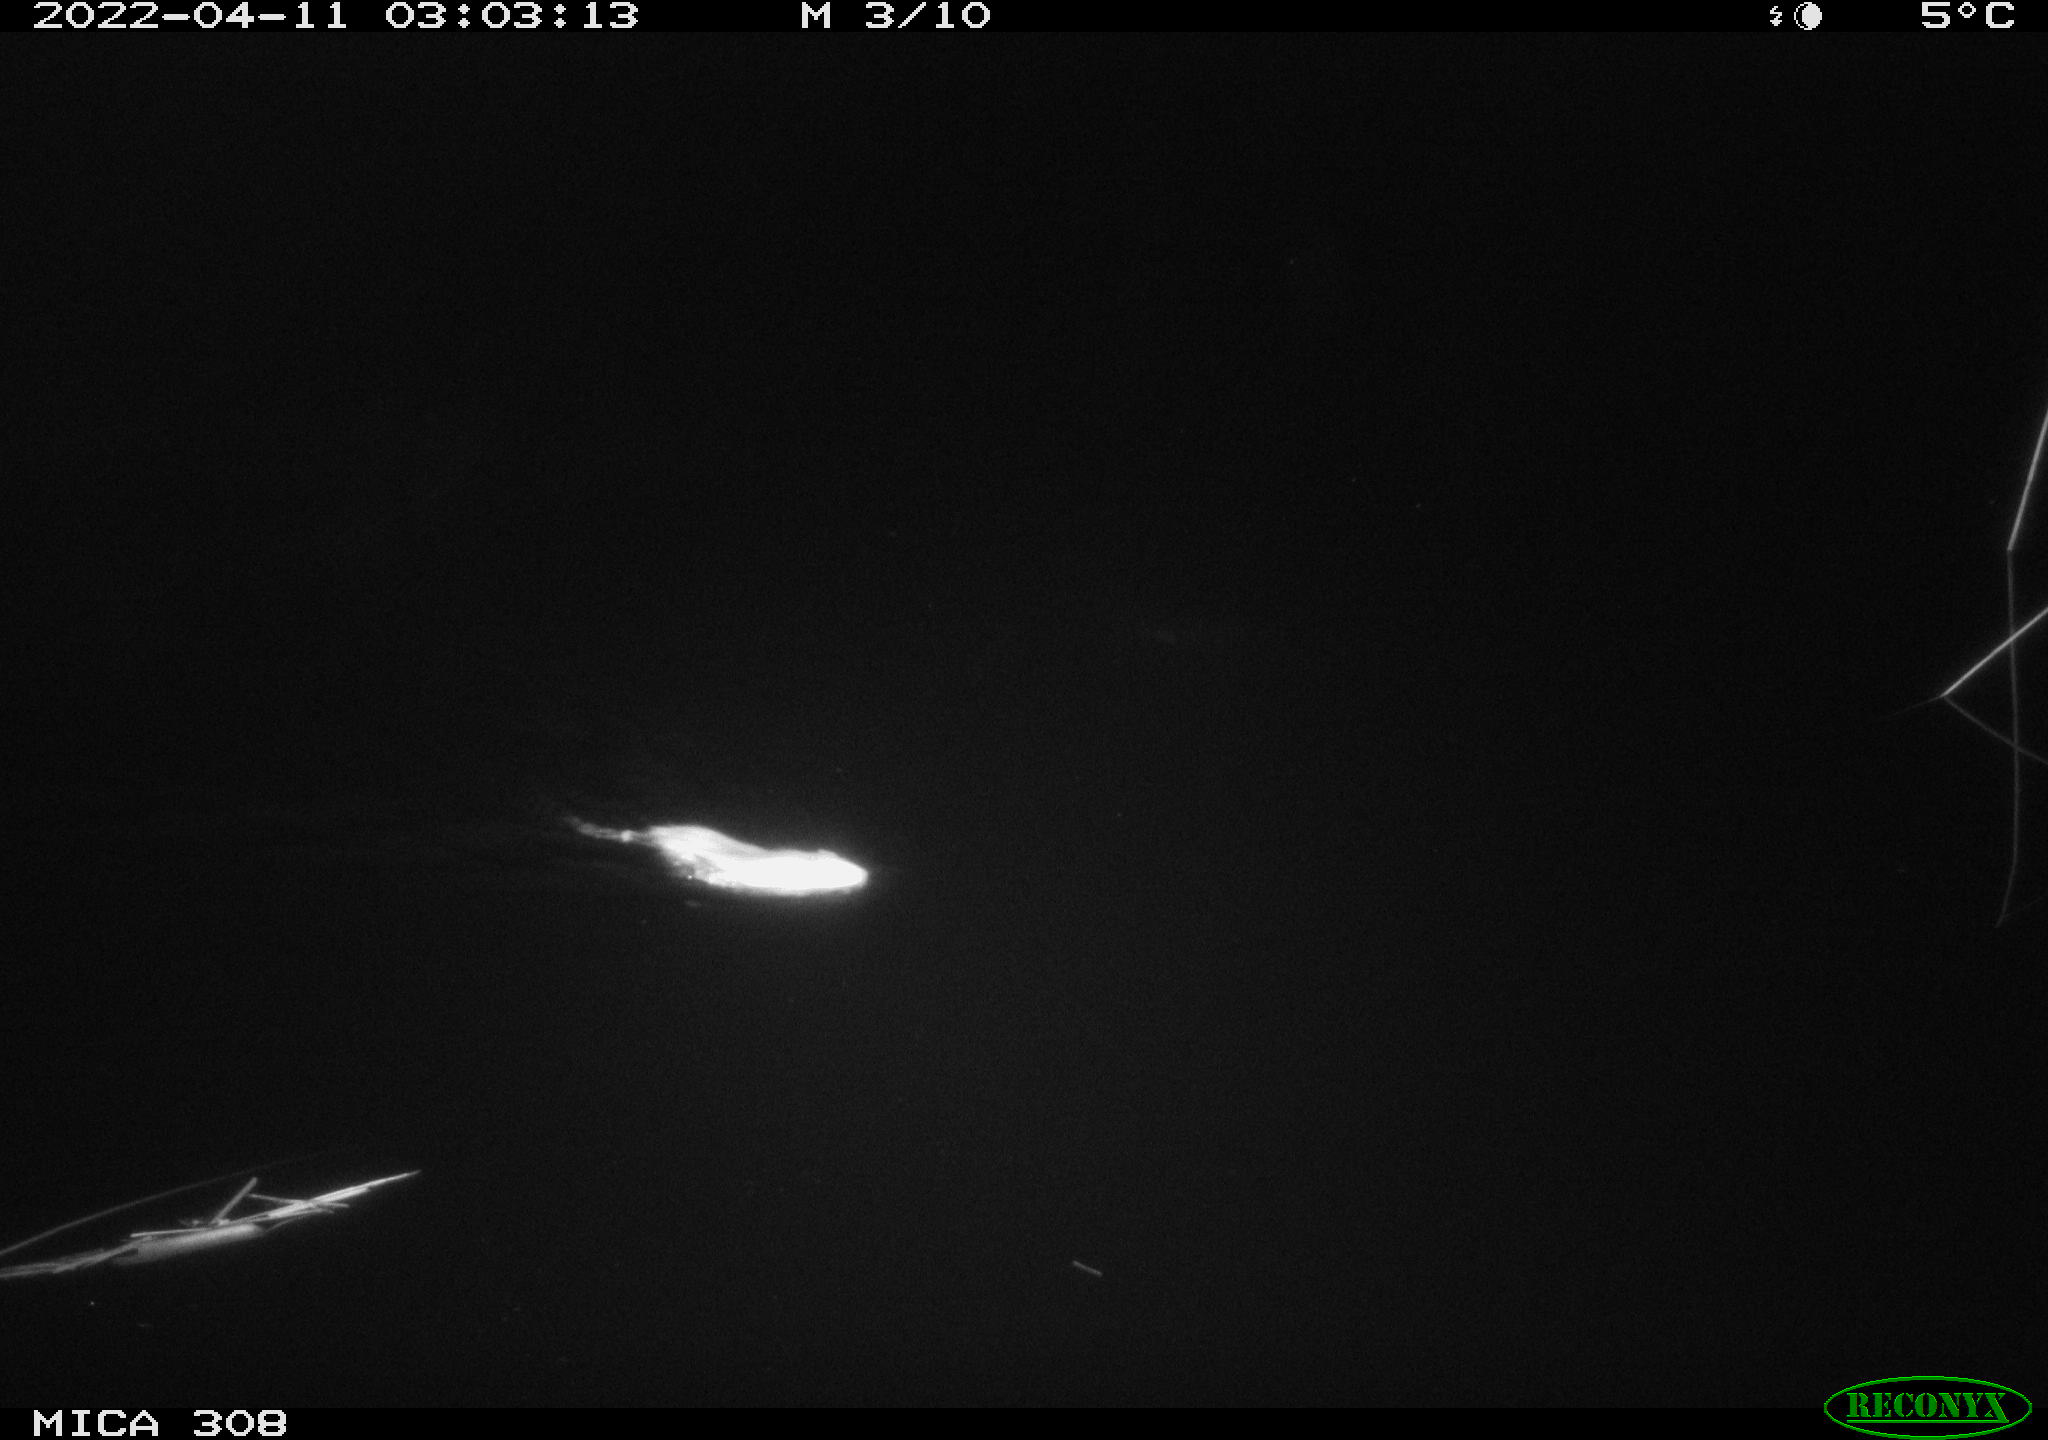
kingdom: Animalia
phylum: Chordata
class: Mammalia
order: Rodentia
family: Muridae
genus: Rattus
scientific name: Rattus norvegicus
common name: Brown rat
